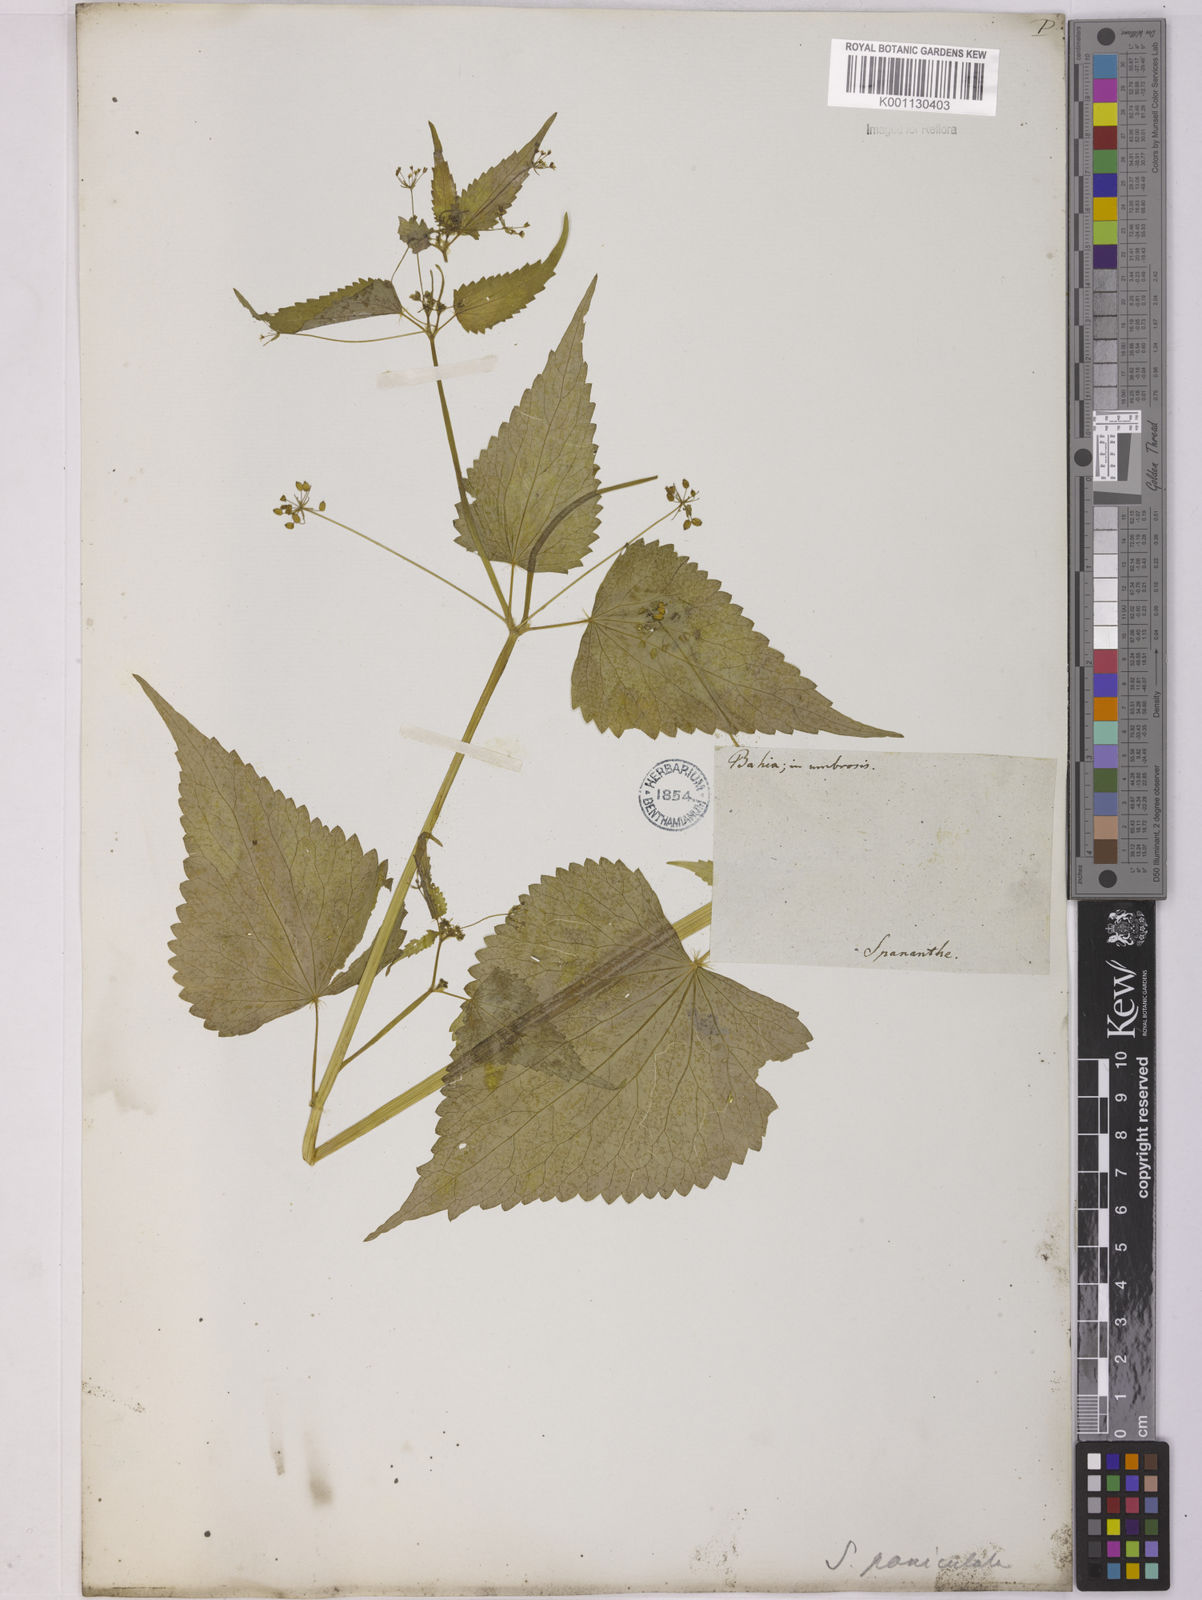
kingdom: Plantae
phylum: Tracheophyta
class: Magnoliopsida
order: Apiales
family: Apiaceae
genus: Spananthe
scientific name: Spananthe paniculata
